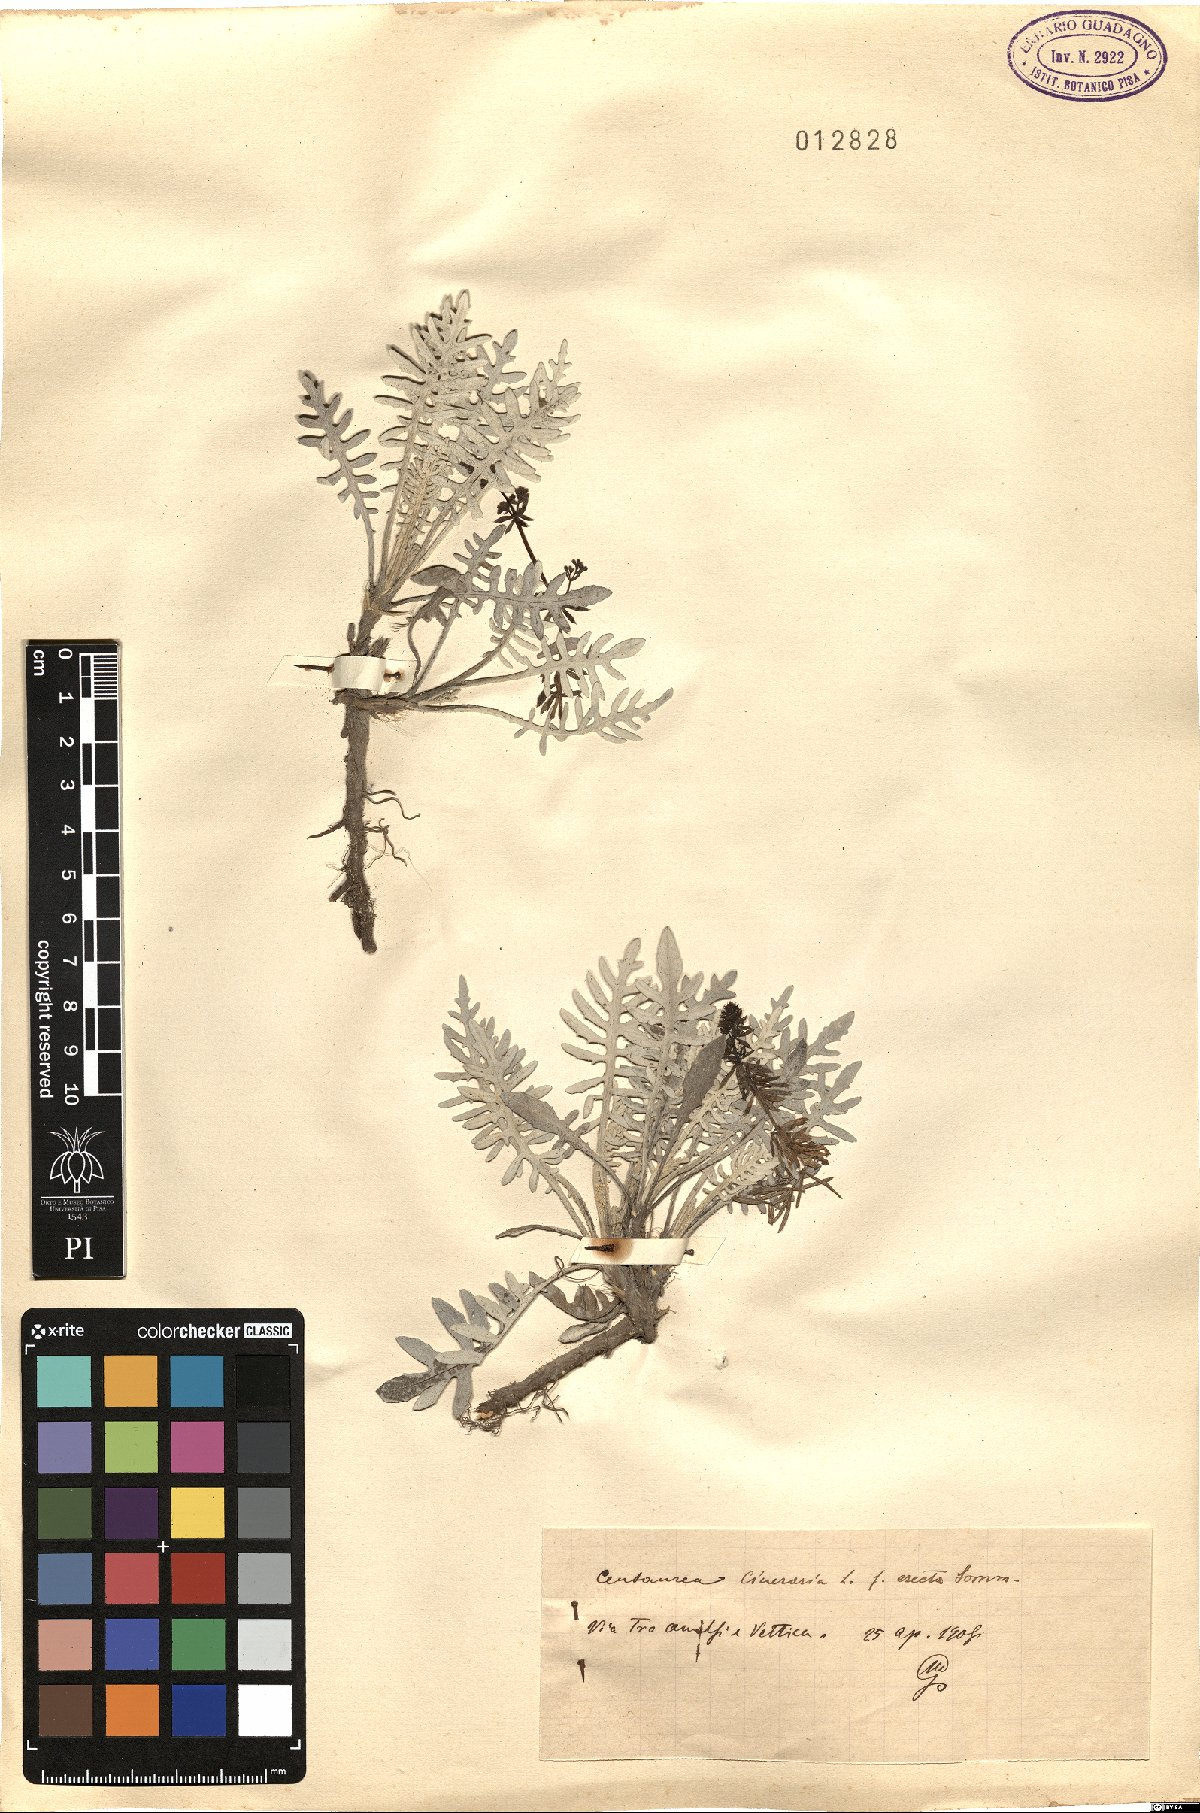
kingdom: Plantae
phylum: Tracheophyta
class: Magnoliopsida
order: Asterales
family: Asteraceae
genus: Centaurea
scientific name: Centaurea cineraria
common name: Dusty miller
